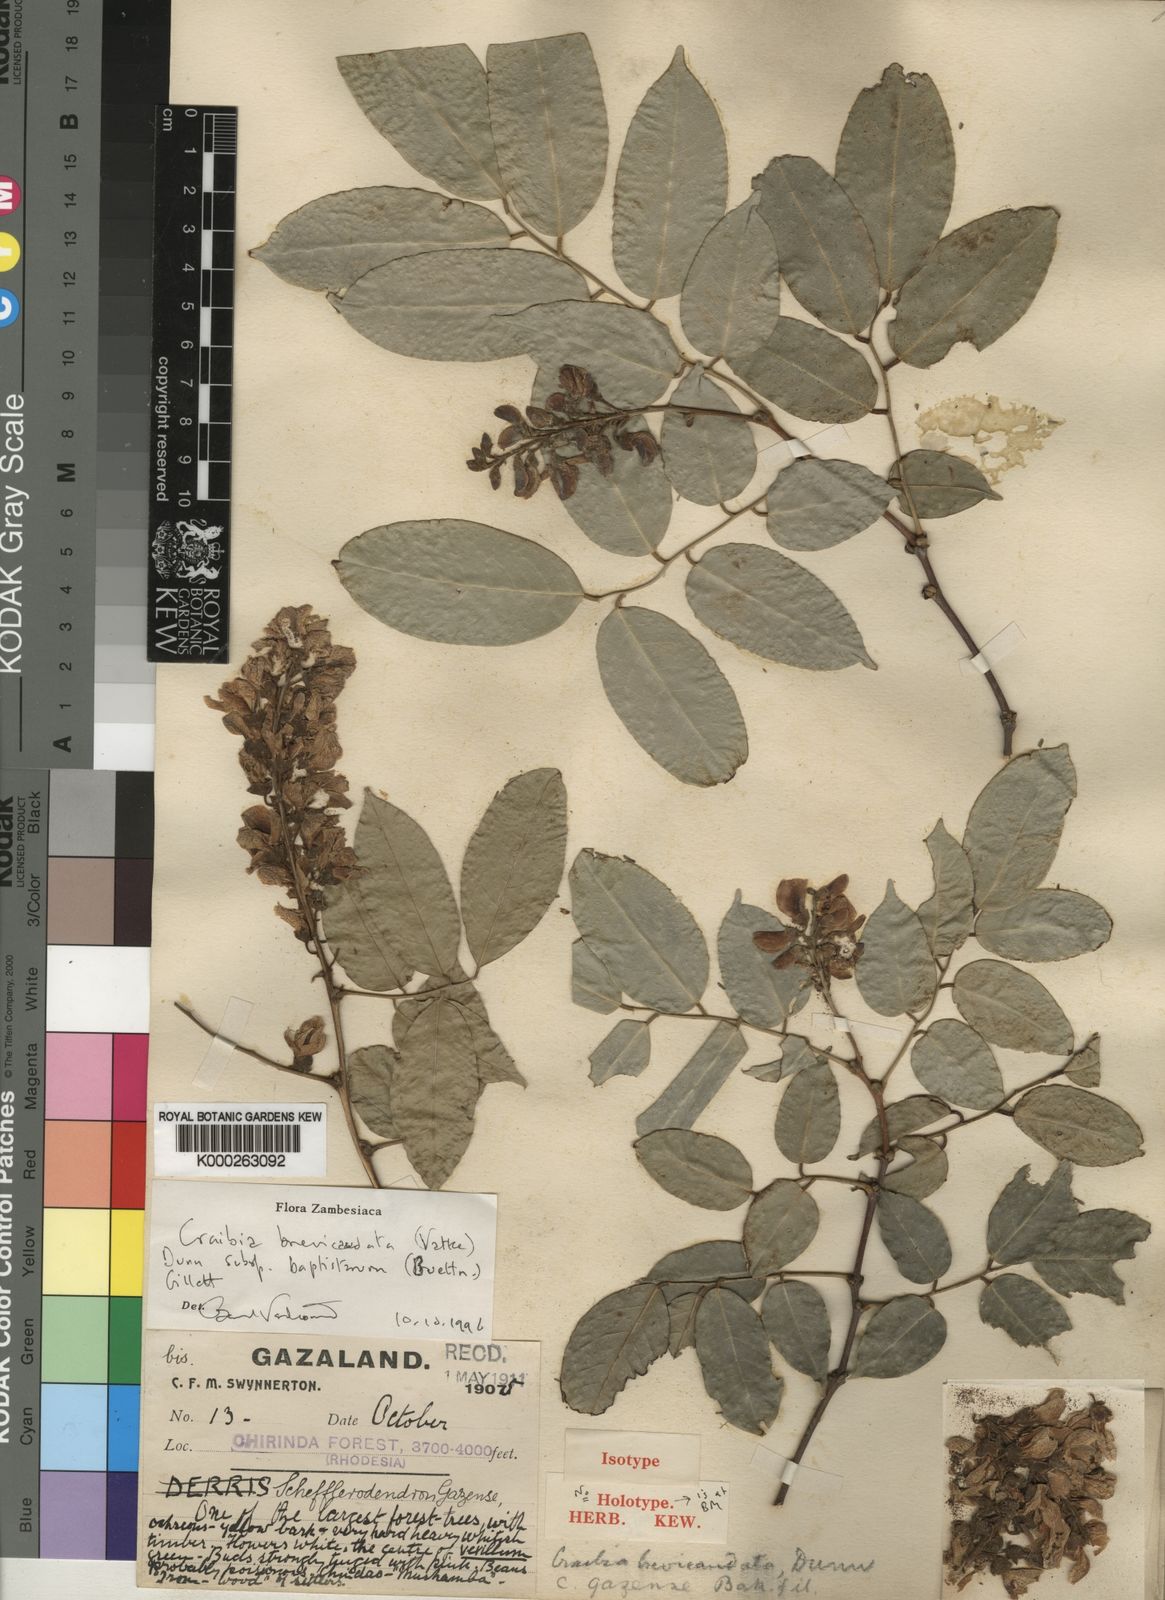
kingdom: Plantae
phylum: Tracheophyta
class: Magnoliopsida
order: Fabales
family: Fabaceae
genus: Craibia
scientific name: Craibia brevicaudata
